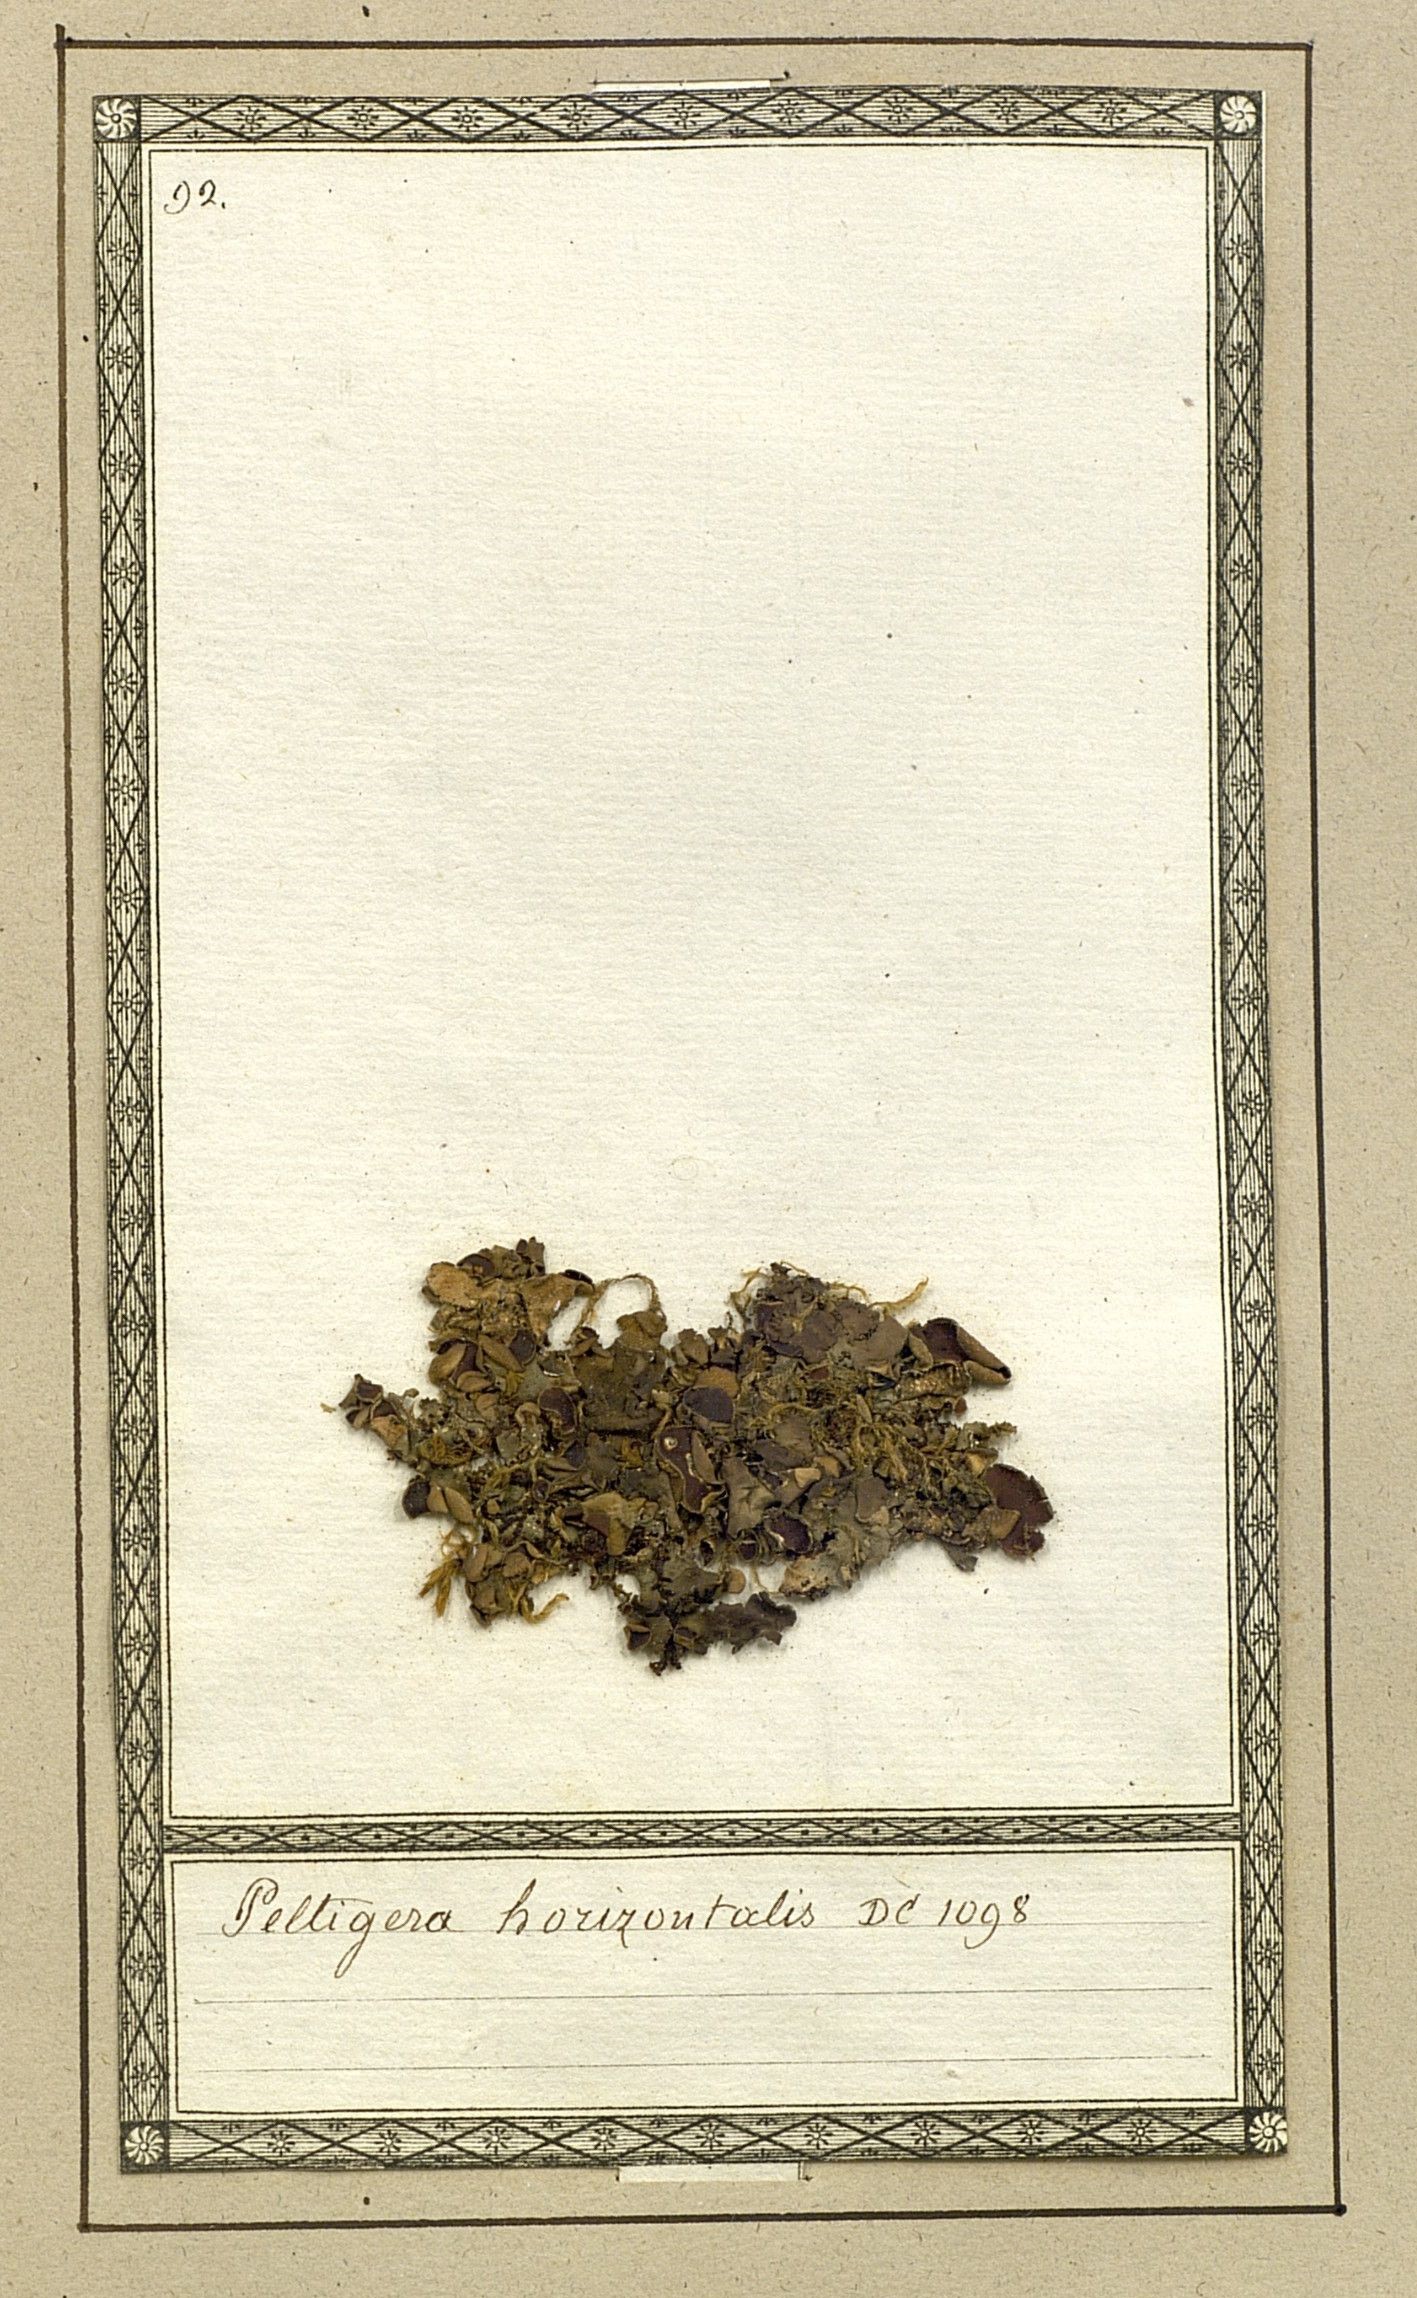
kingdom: Fungi
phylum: Ascomycota
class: Lecanoromycetes
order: Peltigerales
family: Peltigeraceae
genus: Peltigera
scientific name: Peltigera horizontalis
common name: Flat fruited pelt
